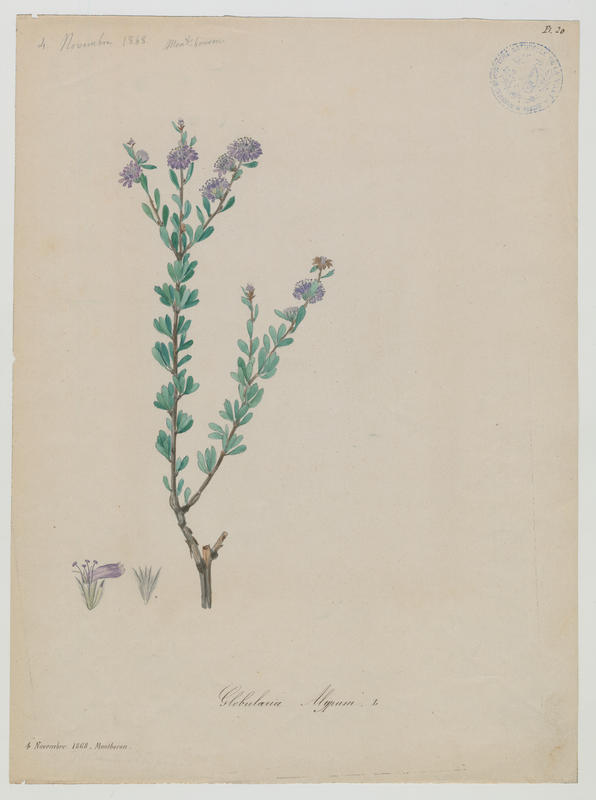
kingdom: Plantae
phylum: Tracheophyta
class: Magnoliopsida
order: Lamiales
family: Plantaginaceae
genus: Globularia
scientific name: Globularia alypum
